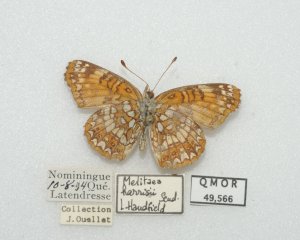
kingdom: Animalia
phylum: Arthropoda
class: Insecta
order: Lepidoptera
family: Nymphalidae
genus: Chlosyne
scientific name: Chlosyne harrisii
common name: Harris's Checkerspot
